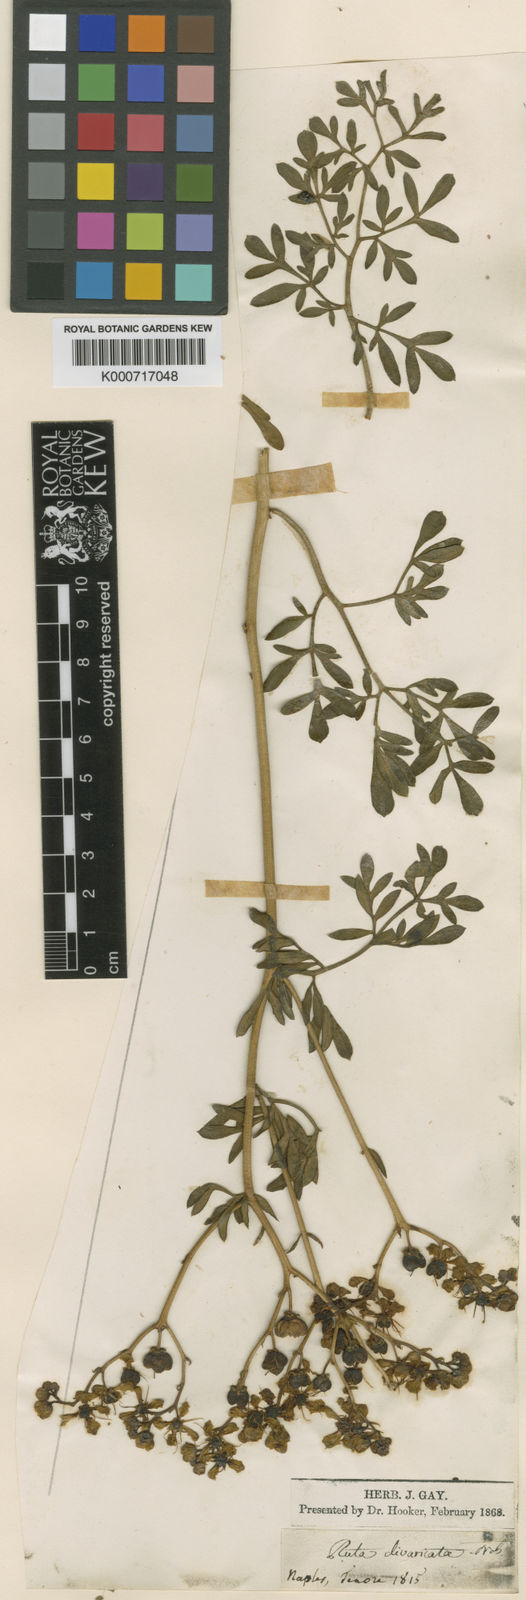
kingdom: Plantae
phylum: Tracheophyta
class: Magnoliopsida
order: Sapindales
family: Rutaceae
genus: Ruta
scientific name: Ruta graveolens
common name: Common rue
